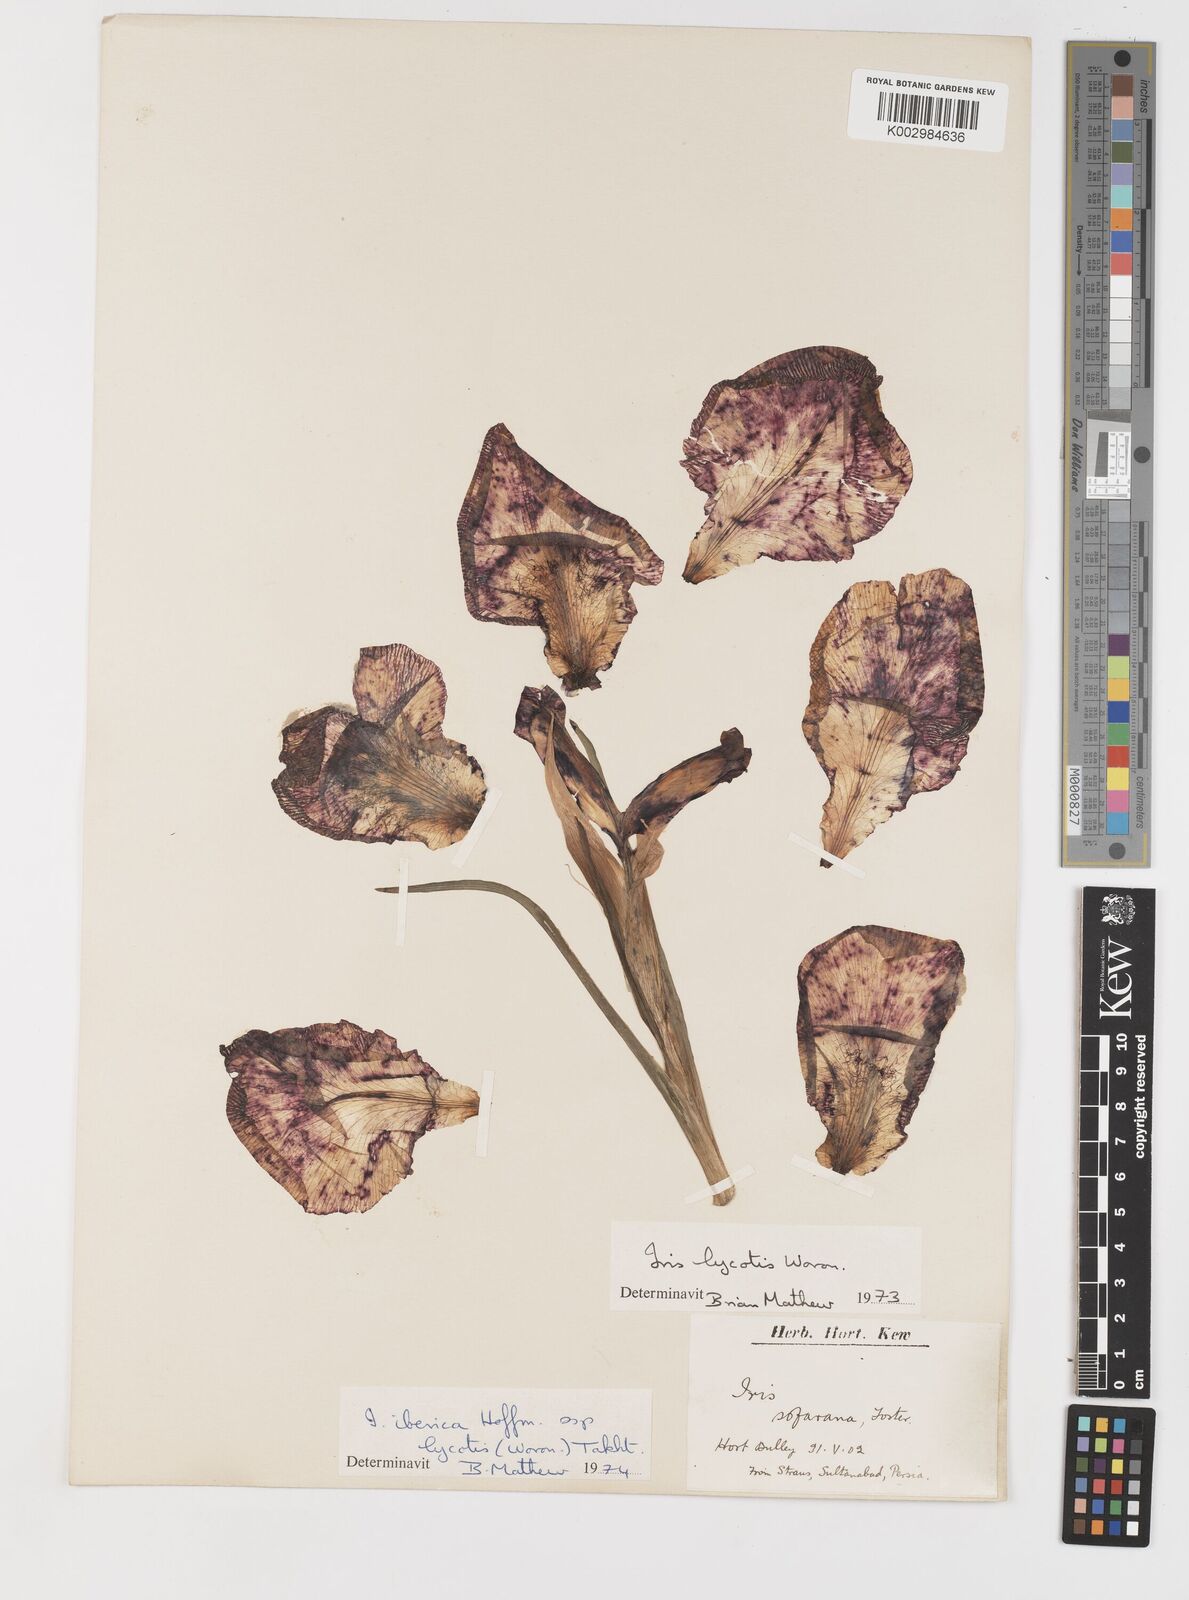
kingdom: Plantae
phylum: Tracheophyta
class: Liliopsida
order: Asparagales
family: Iridaceae
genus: Iris
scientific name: Iris lycotis
